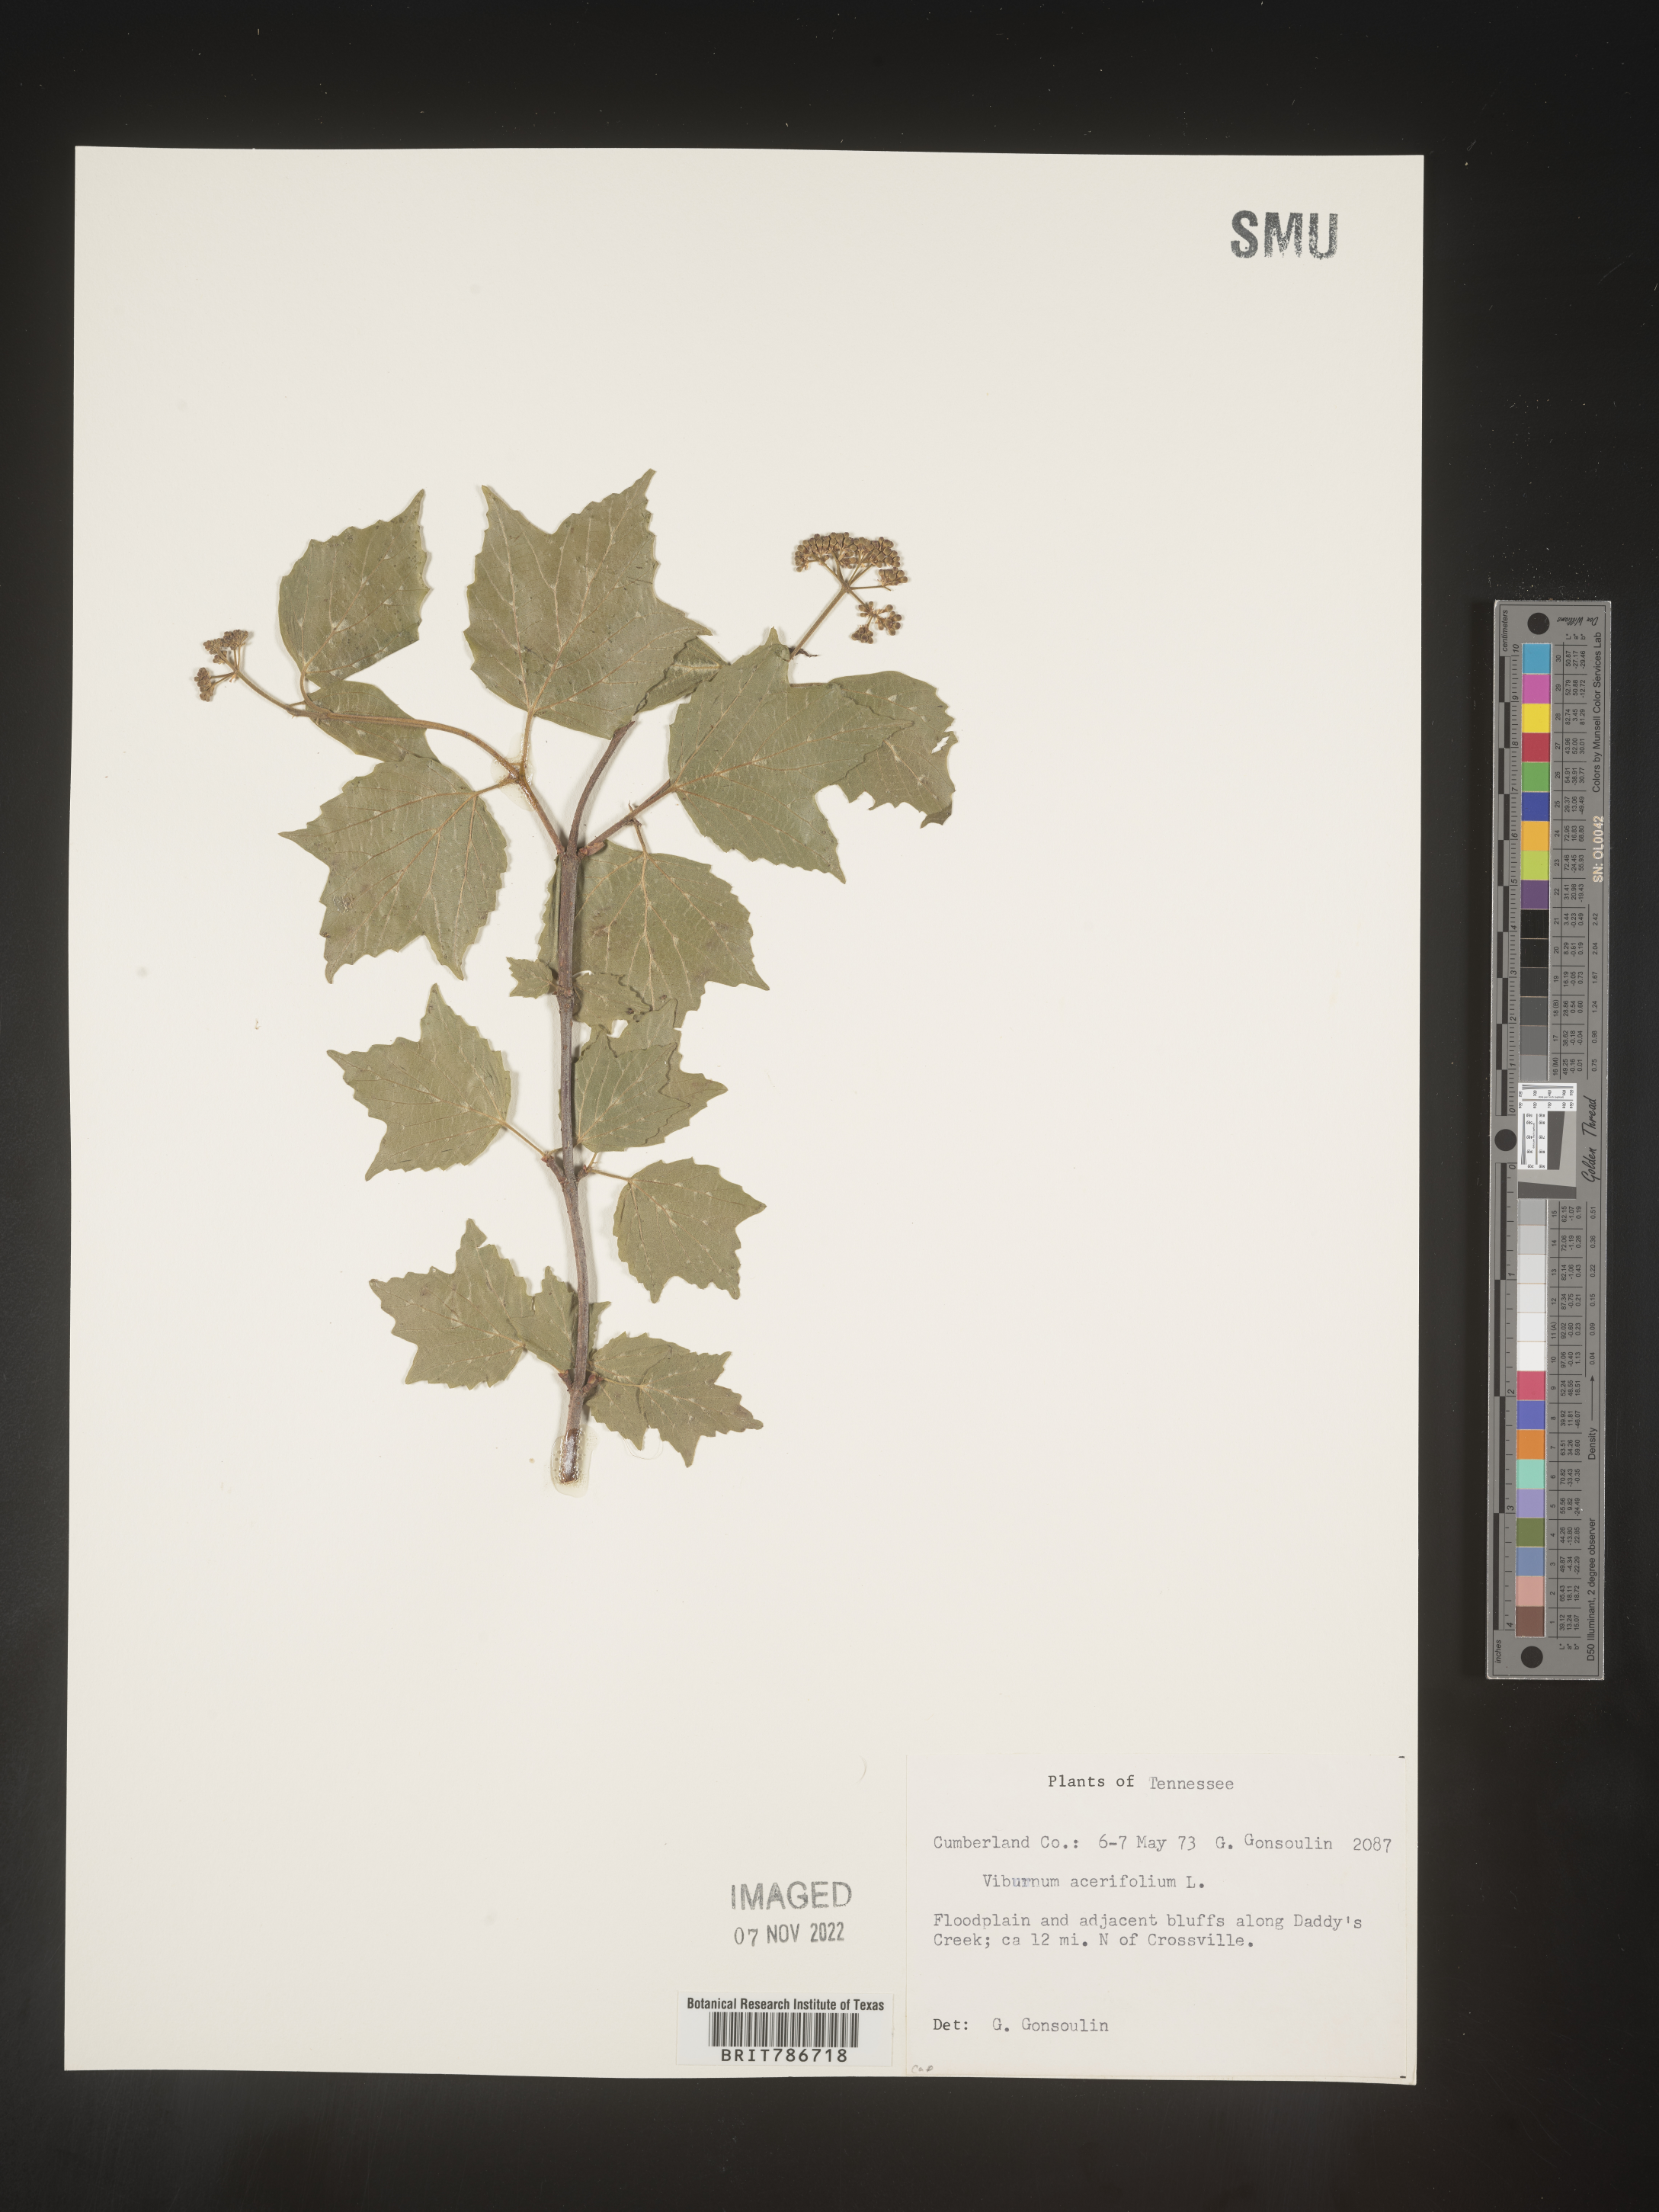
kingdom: Plantae
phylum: Tracheophyta
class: Magnoliopsida
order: Dipsacales
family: Viburnaceae
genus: Viburnum
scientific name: Viburnum acerifolium
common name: Dockmackie
